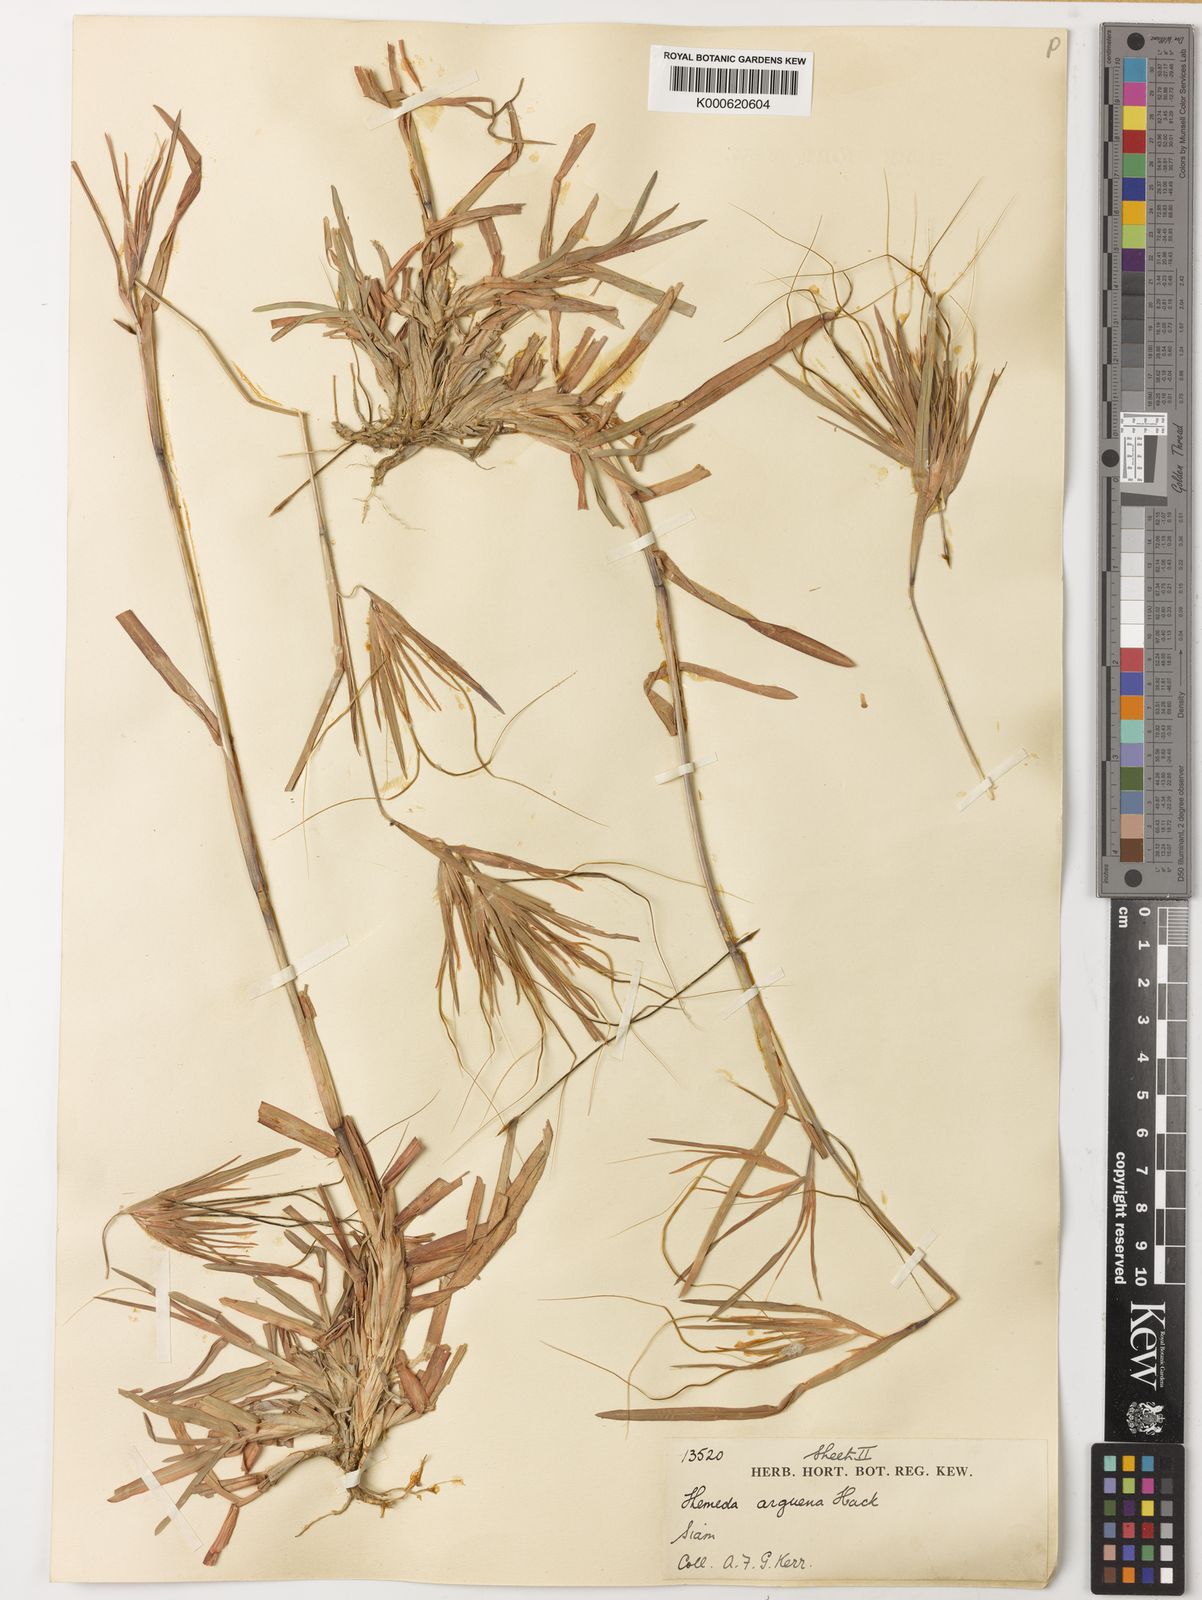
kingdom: Plantae
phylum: Tracheophyta
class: Liliopsida
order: Poales
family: Poaceae
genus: Themeda
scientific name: Themeda arguens
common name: Christmas grass
